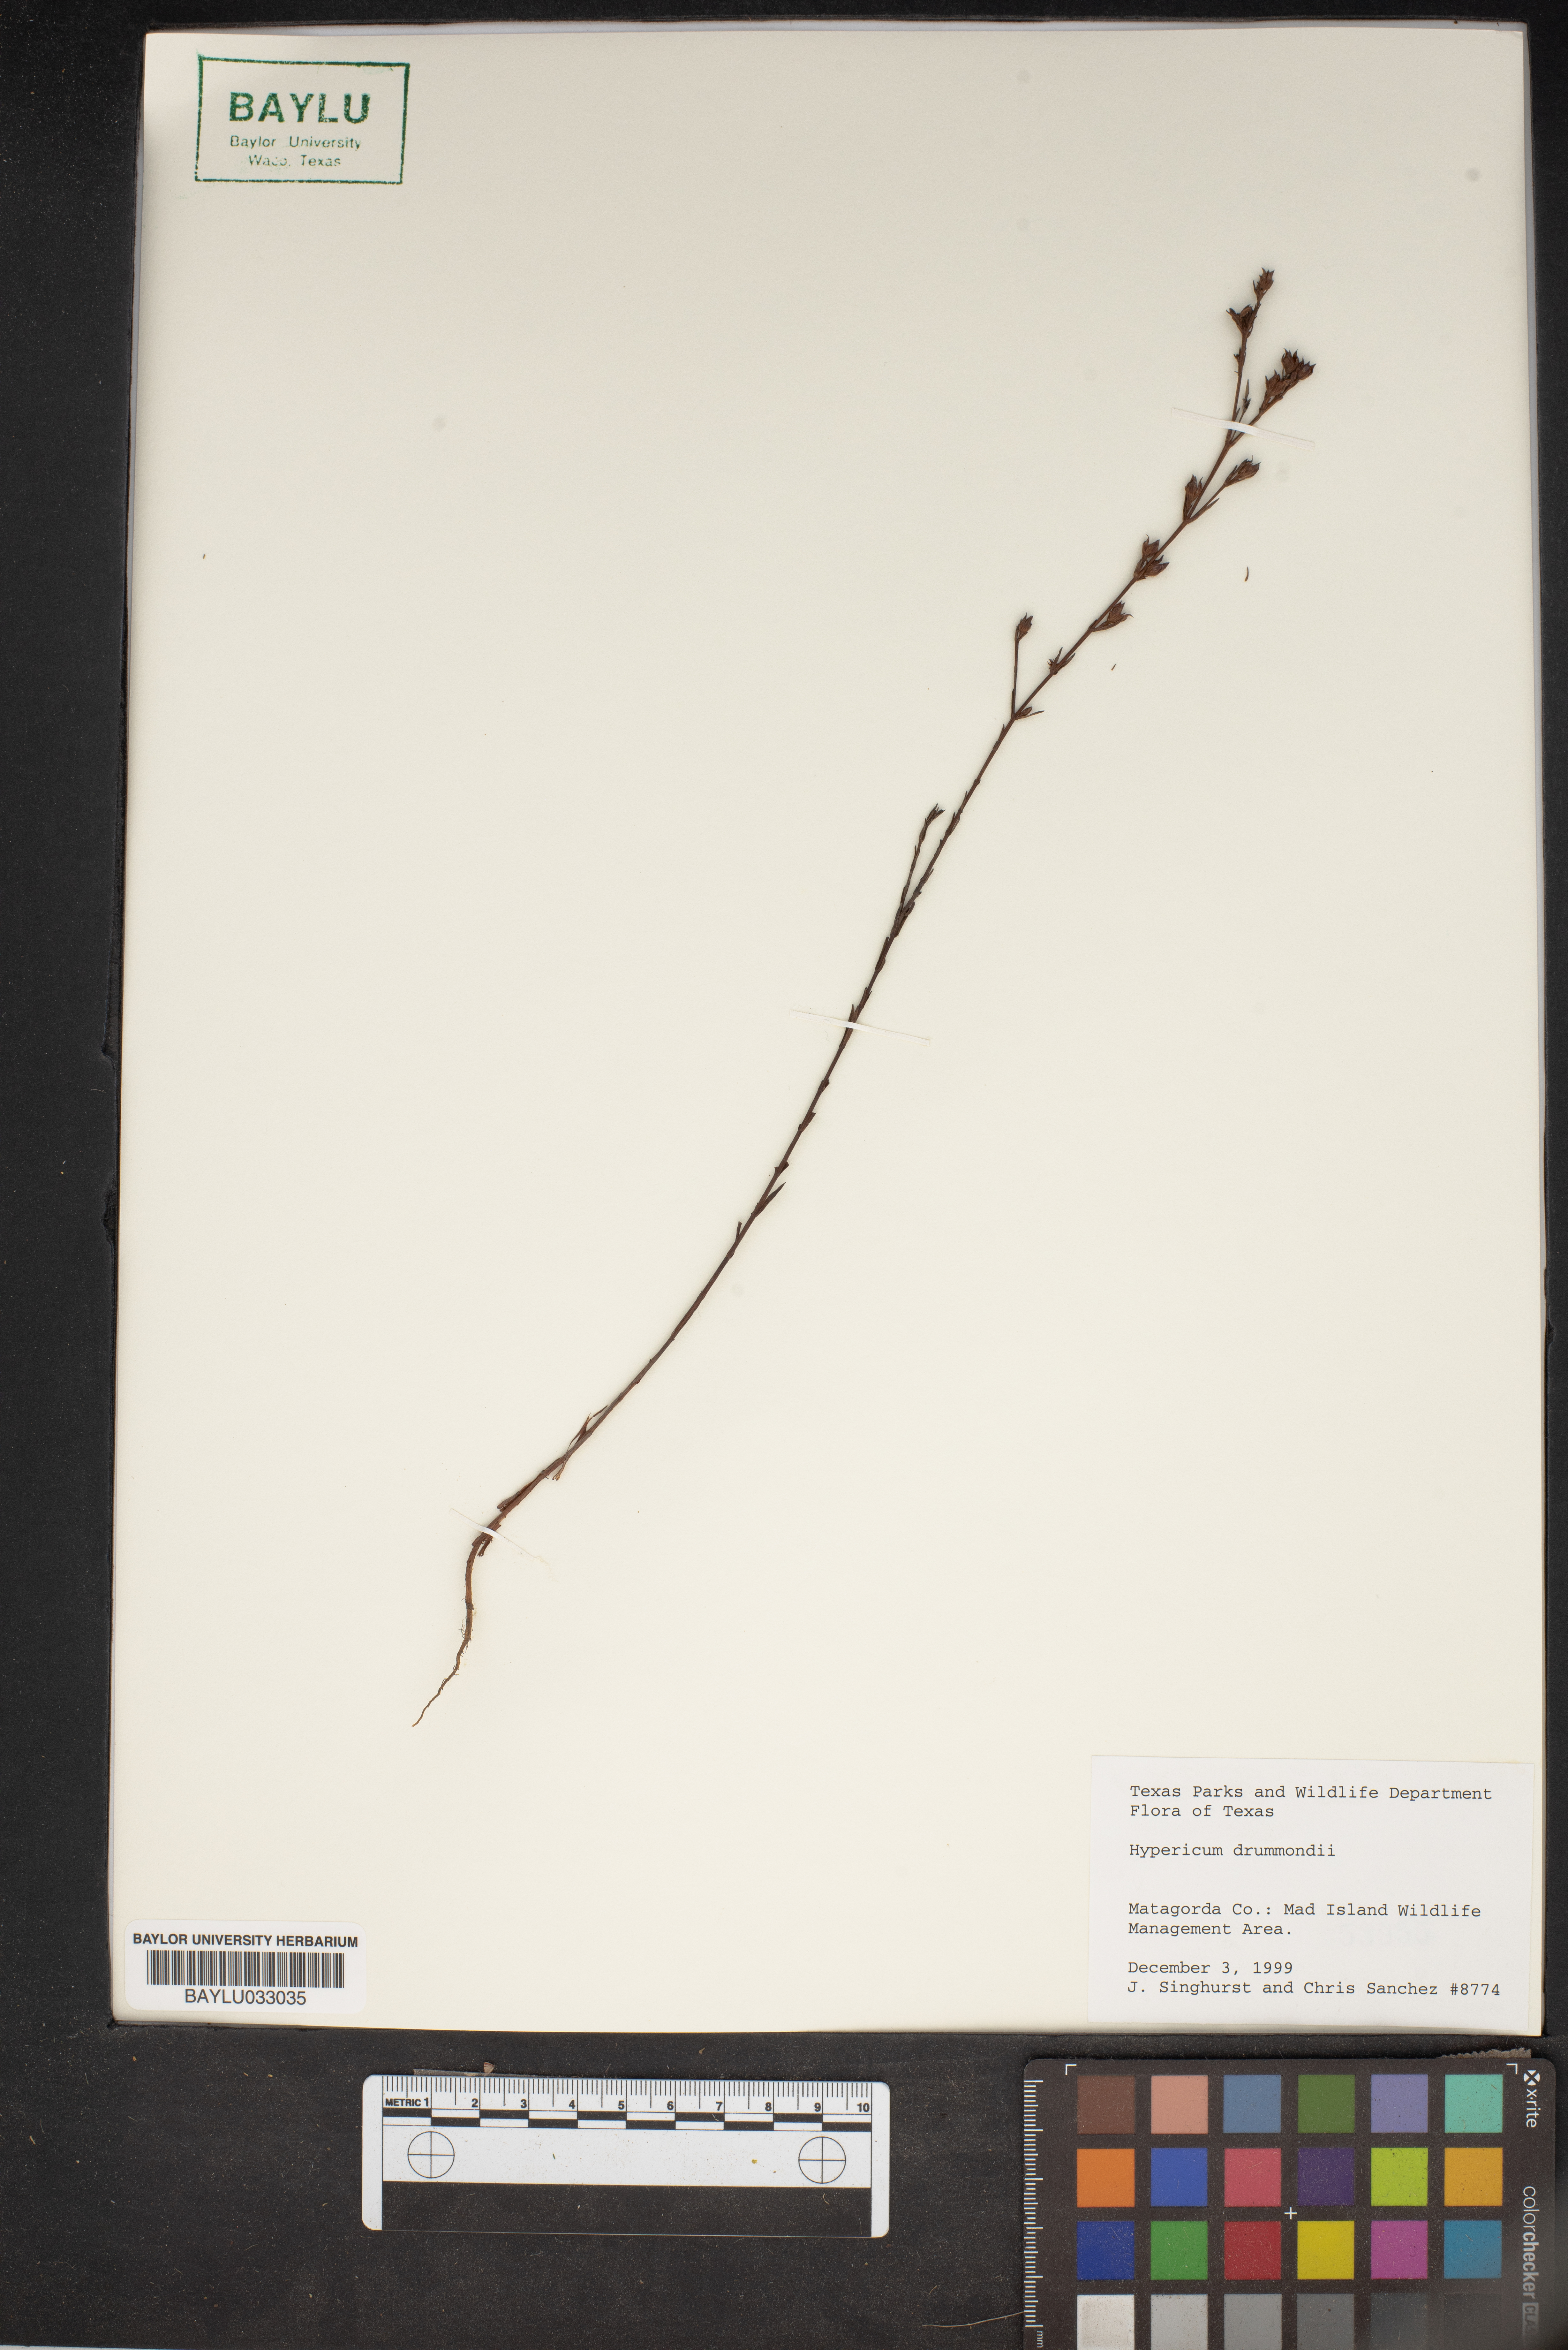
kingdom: Plantae
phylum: Tracheophyta
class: Magnoliopsida
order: Malpighiales
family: Hypericaceae
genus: Hypericum
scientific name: Hypericum drummondii
